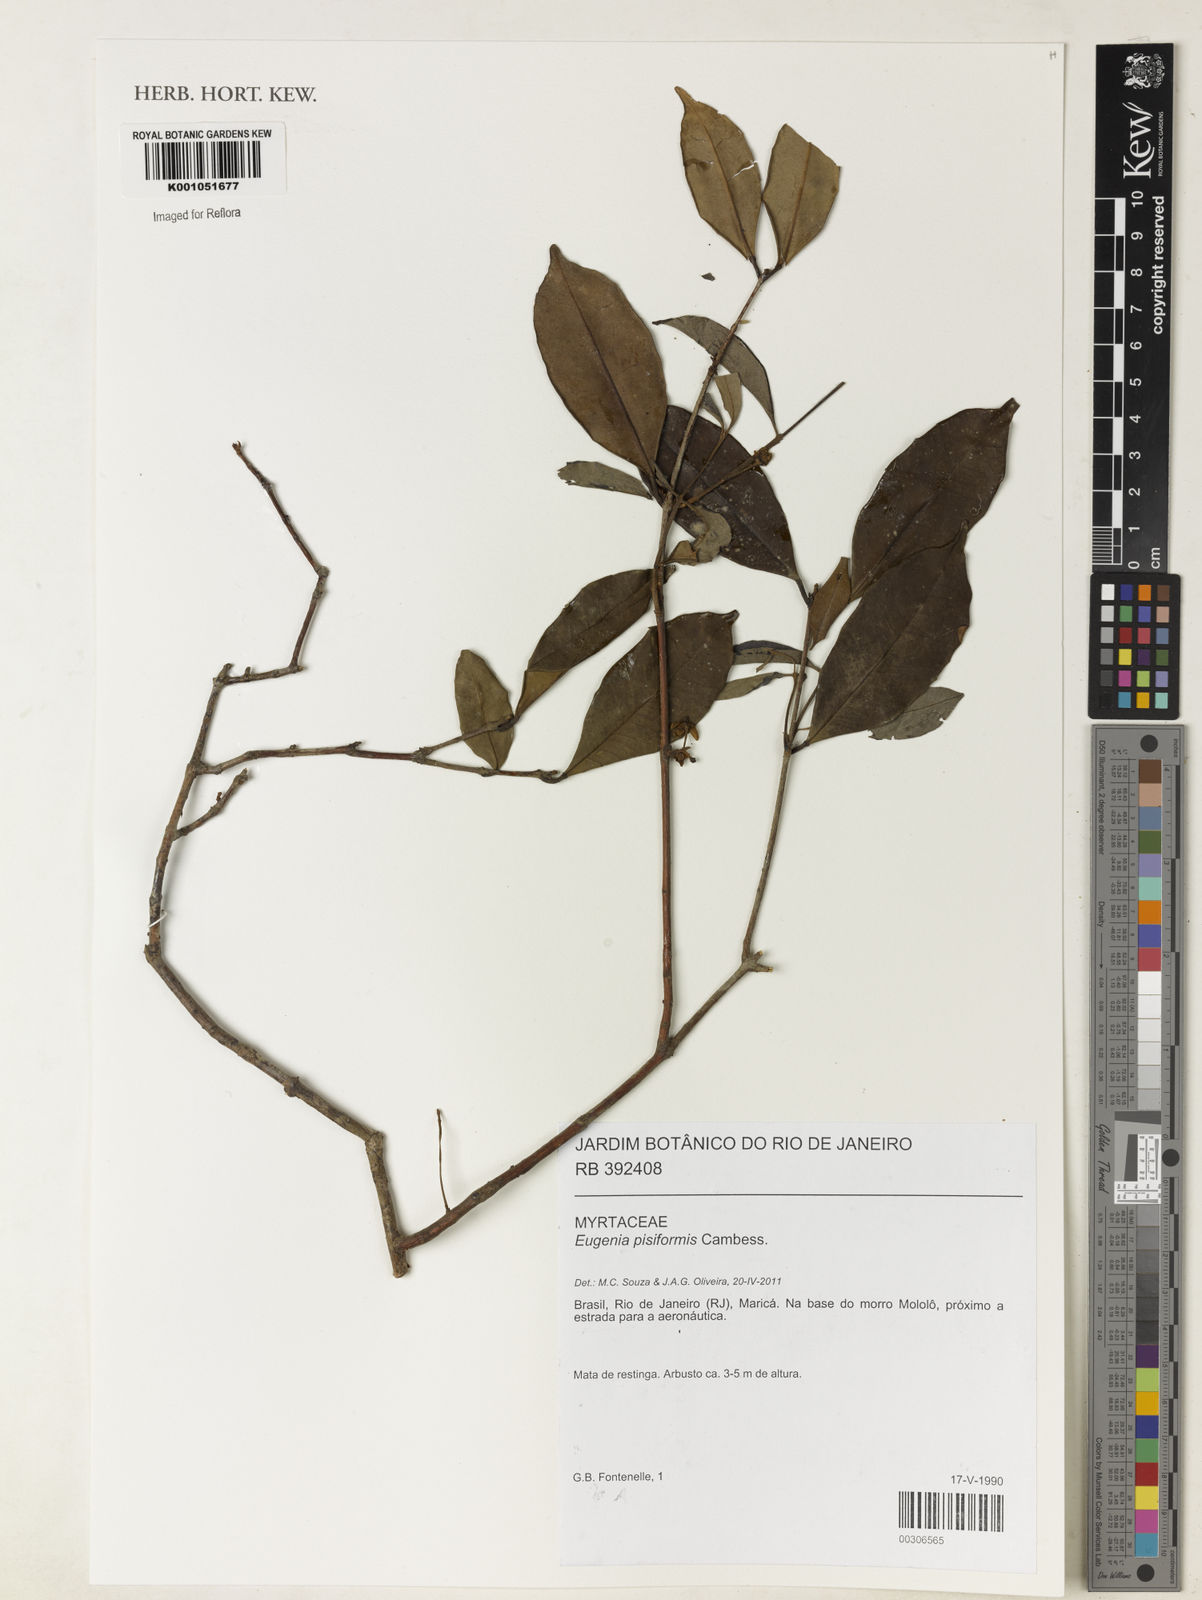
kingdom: Plantae
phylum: Tracheophyta
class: Magnoliopsida
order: Myrtales
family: Myrtaceae
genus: Eugenia
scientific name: Eugenia pisiformis
